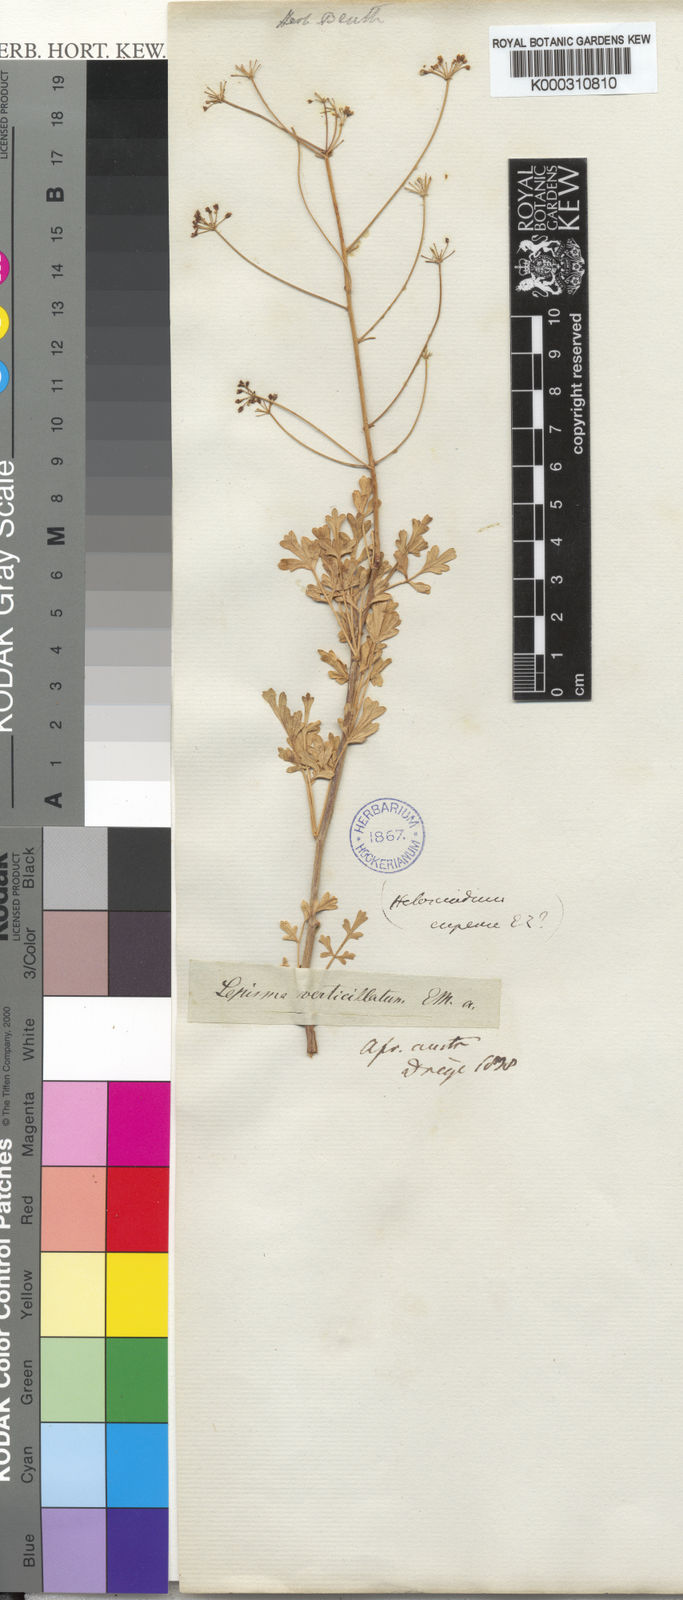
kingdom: Plantae
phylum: Tracheophyta
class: Magnoliopsida
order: Apiales
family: Apiaceae
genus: Anginon
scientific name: Anginon verticillatum
